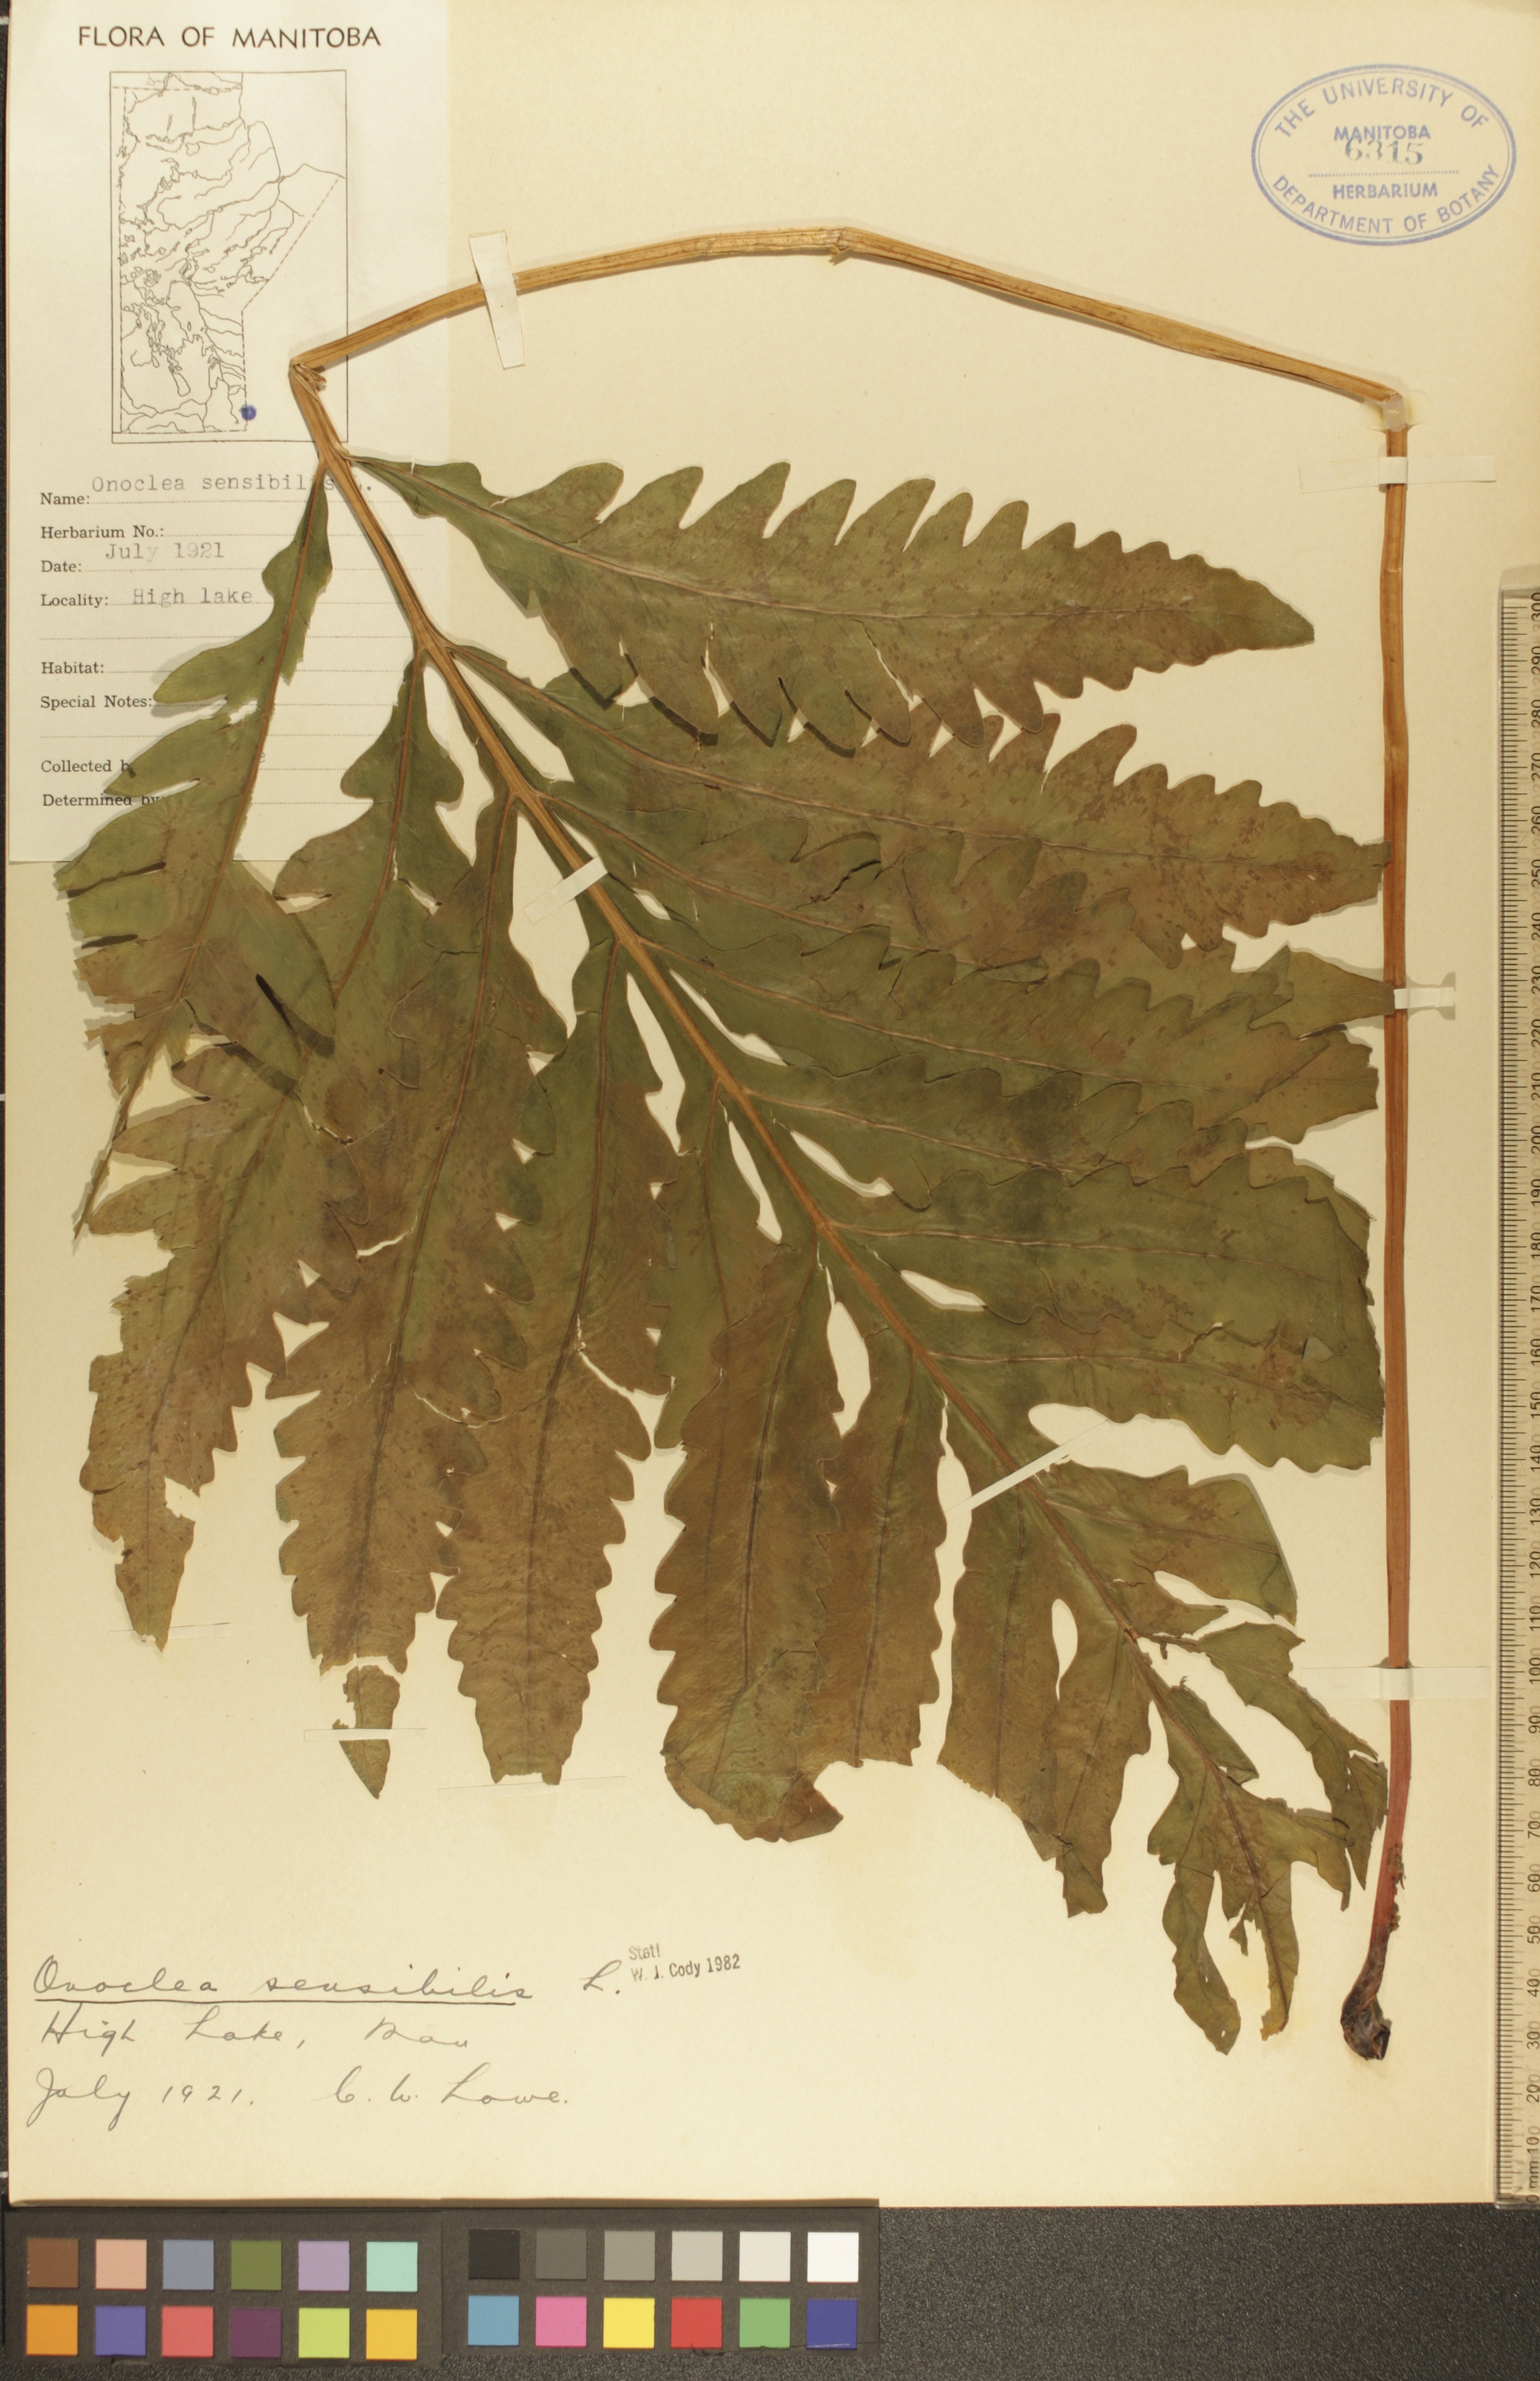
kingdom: Plantae
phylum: Tracheophyta
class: Polypodiopsida
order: Polypodiales
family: Onocleaceae
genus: Onoclea
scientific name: Onoclea sensibilis
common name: Sensitive fern
